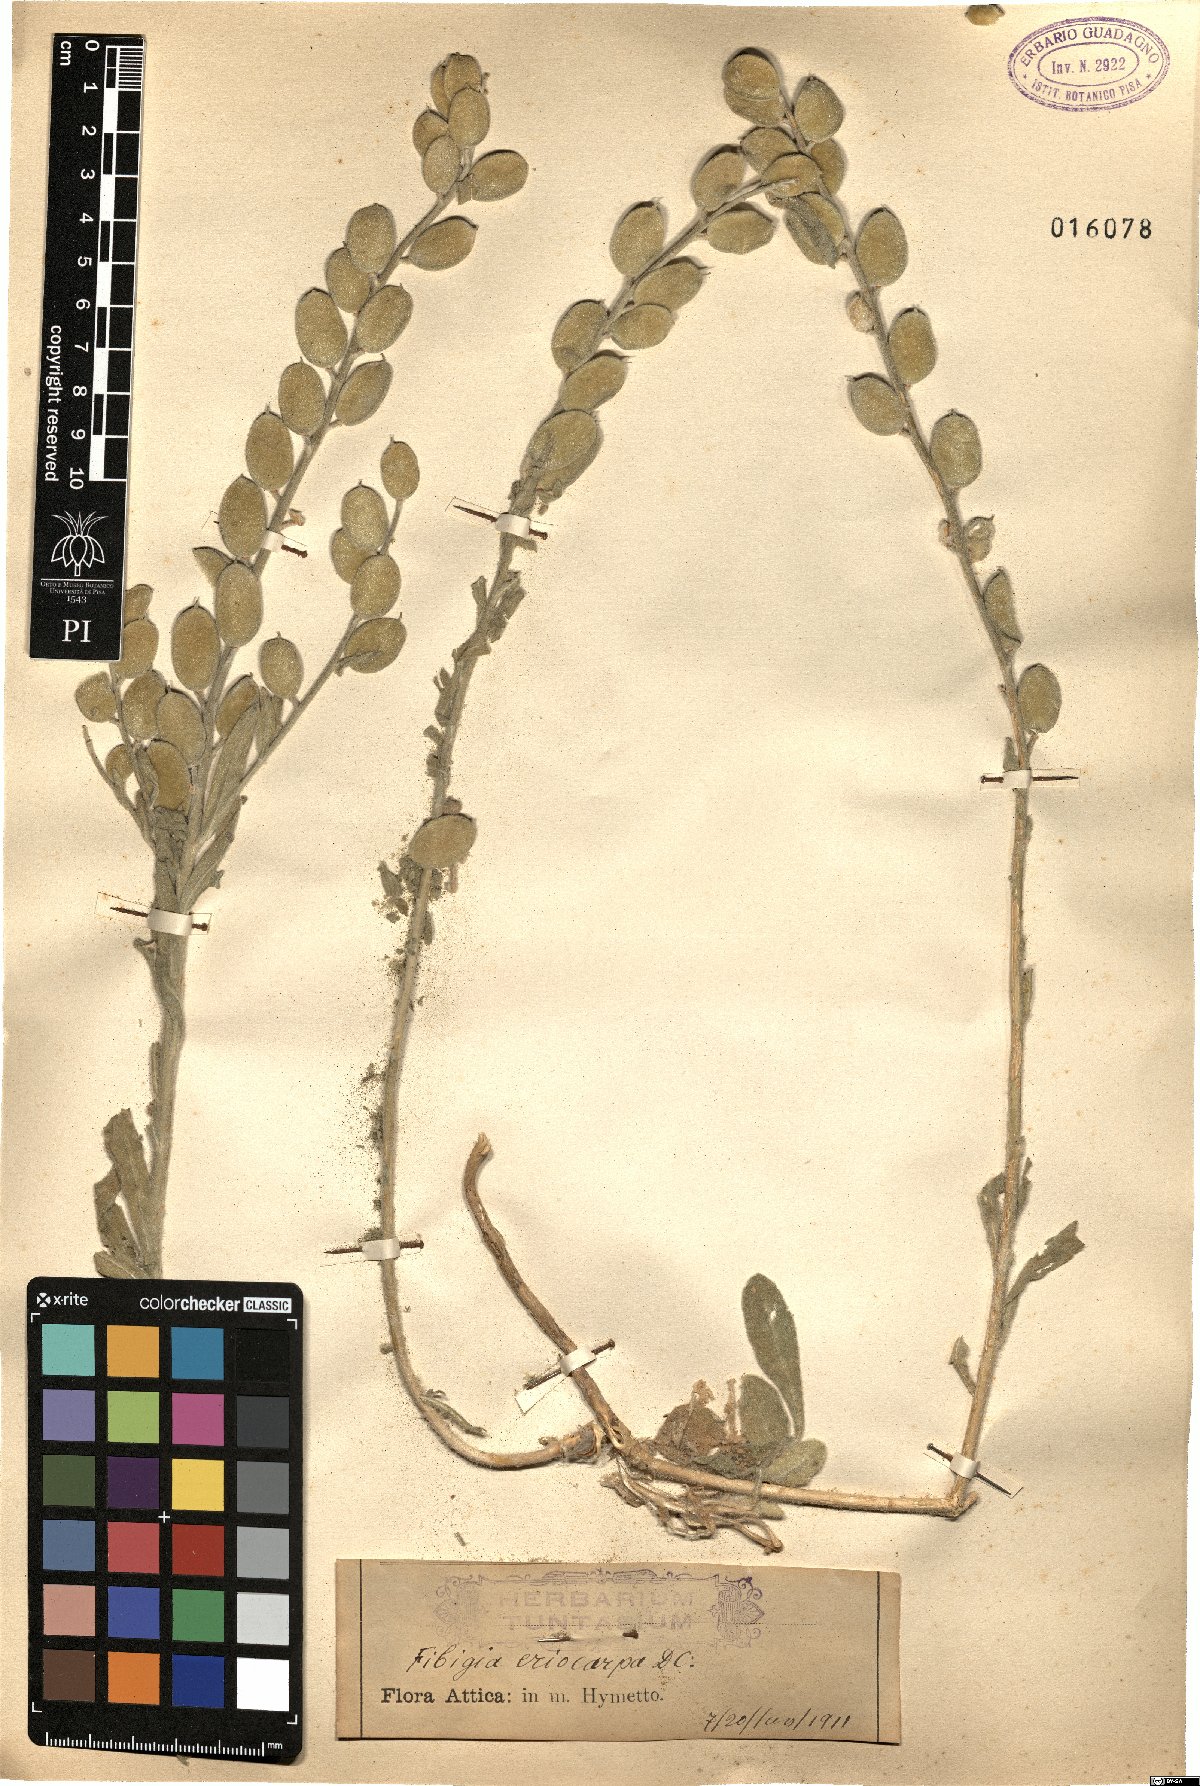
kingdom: Plantae
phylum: Tracheophyta
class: Magnoliopsida
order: Brassicales
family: Brassicaceae
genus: Fibigia
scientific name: Fibigia clypeata
